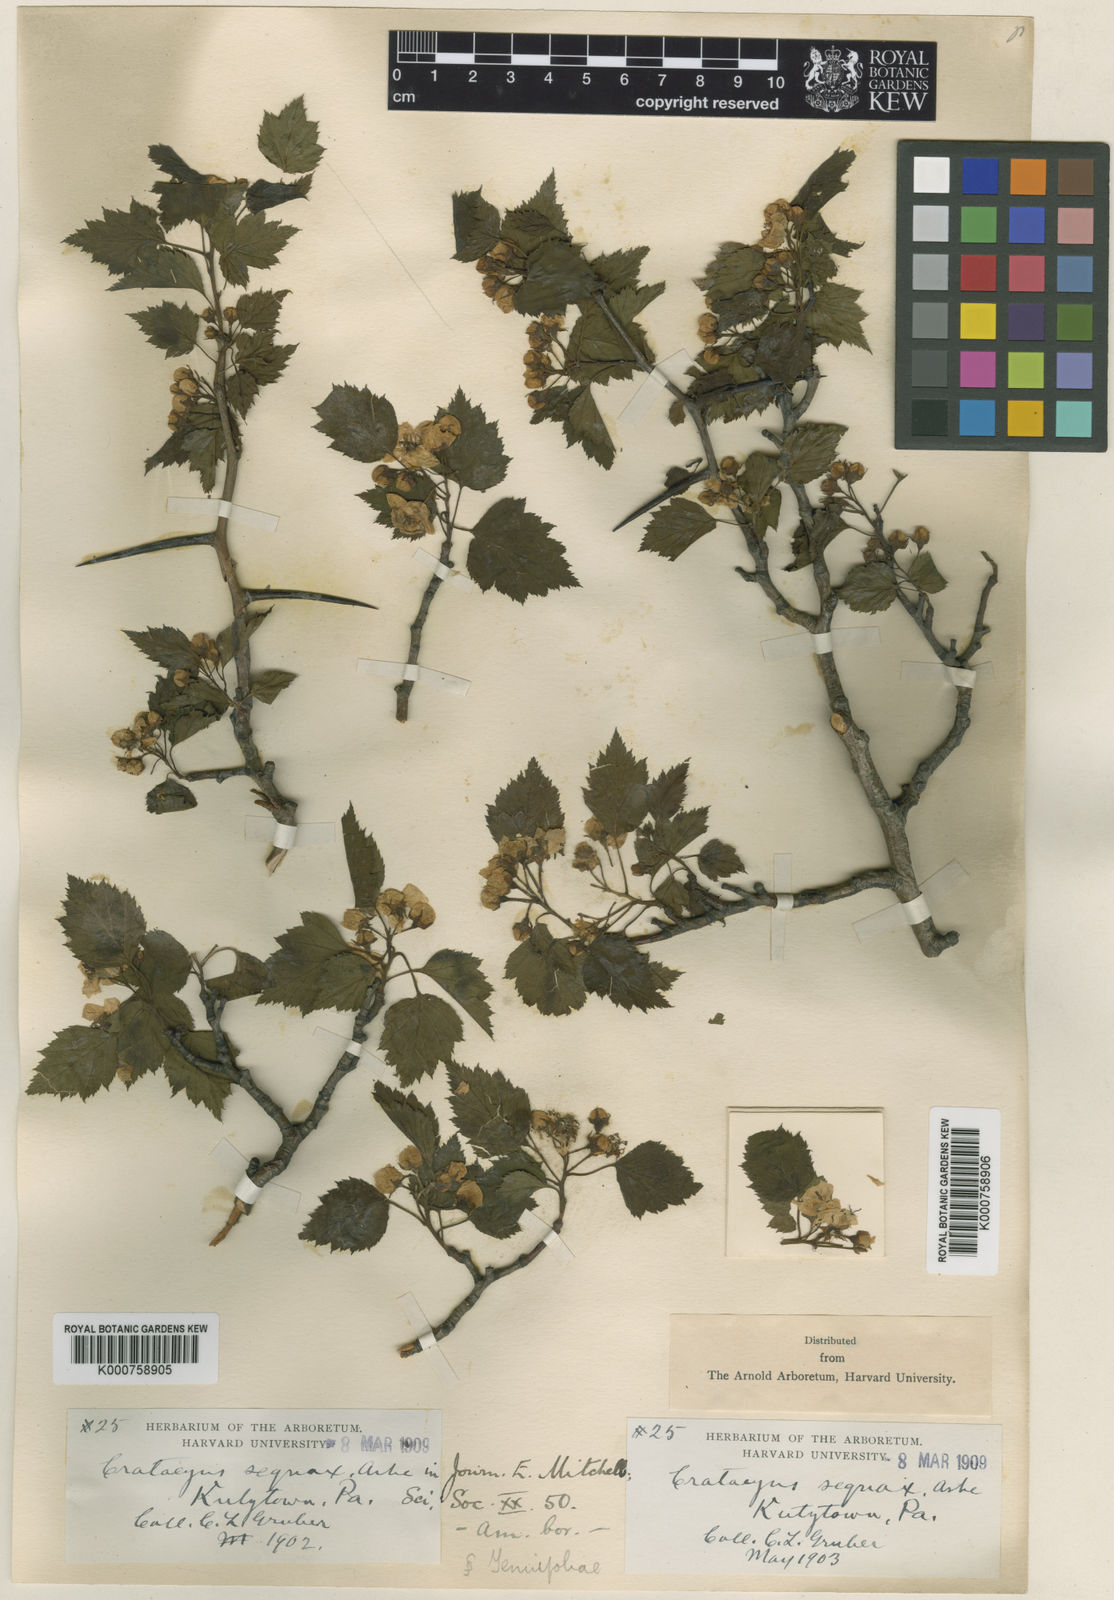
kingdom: Plantae
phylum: Tracheophyta
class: Magnoliopsida
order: Rosales
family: Rosaceae
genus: Crataegus
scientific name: Crataegus sequax
